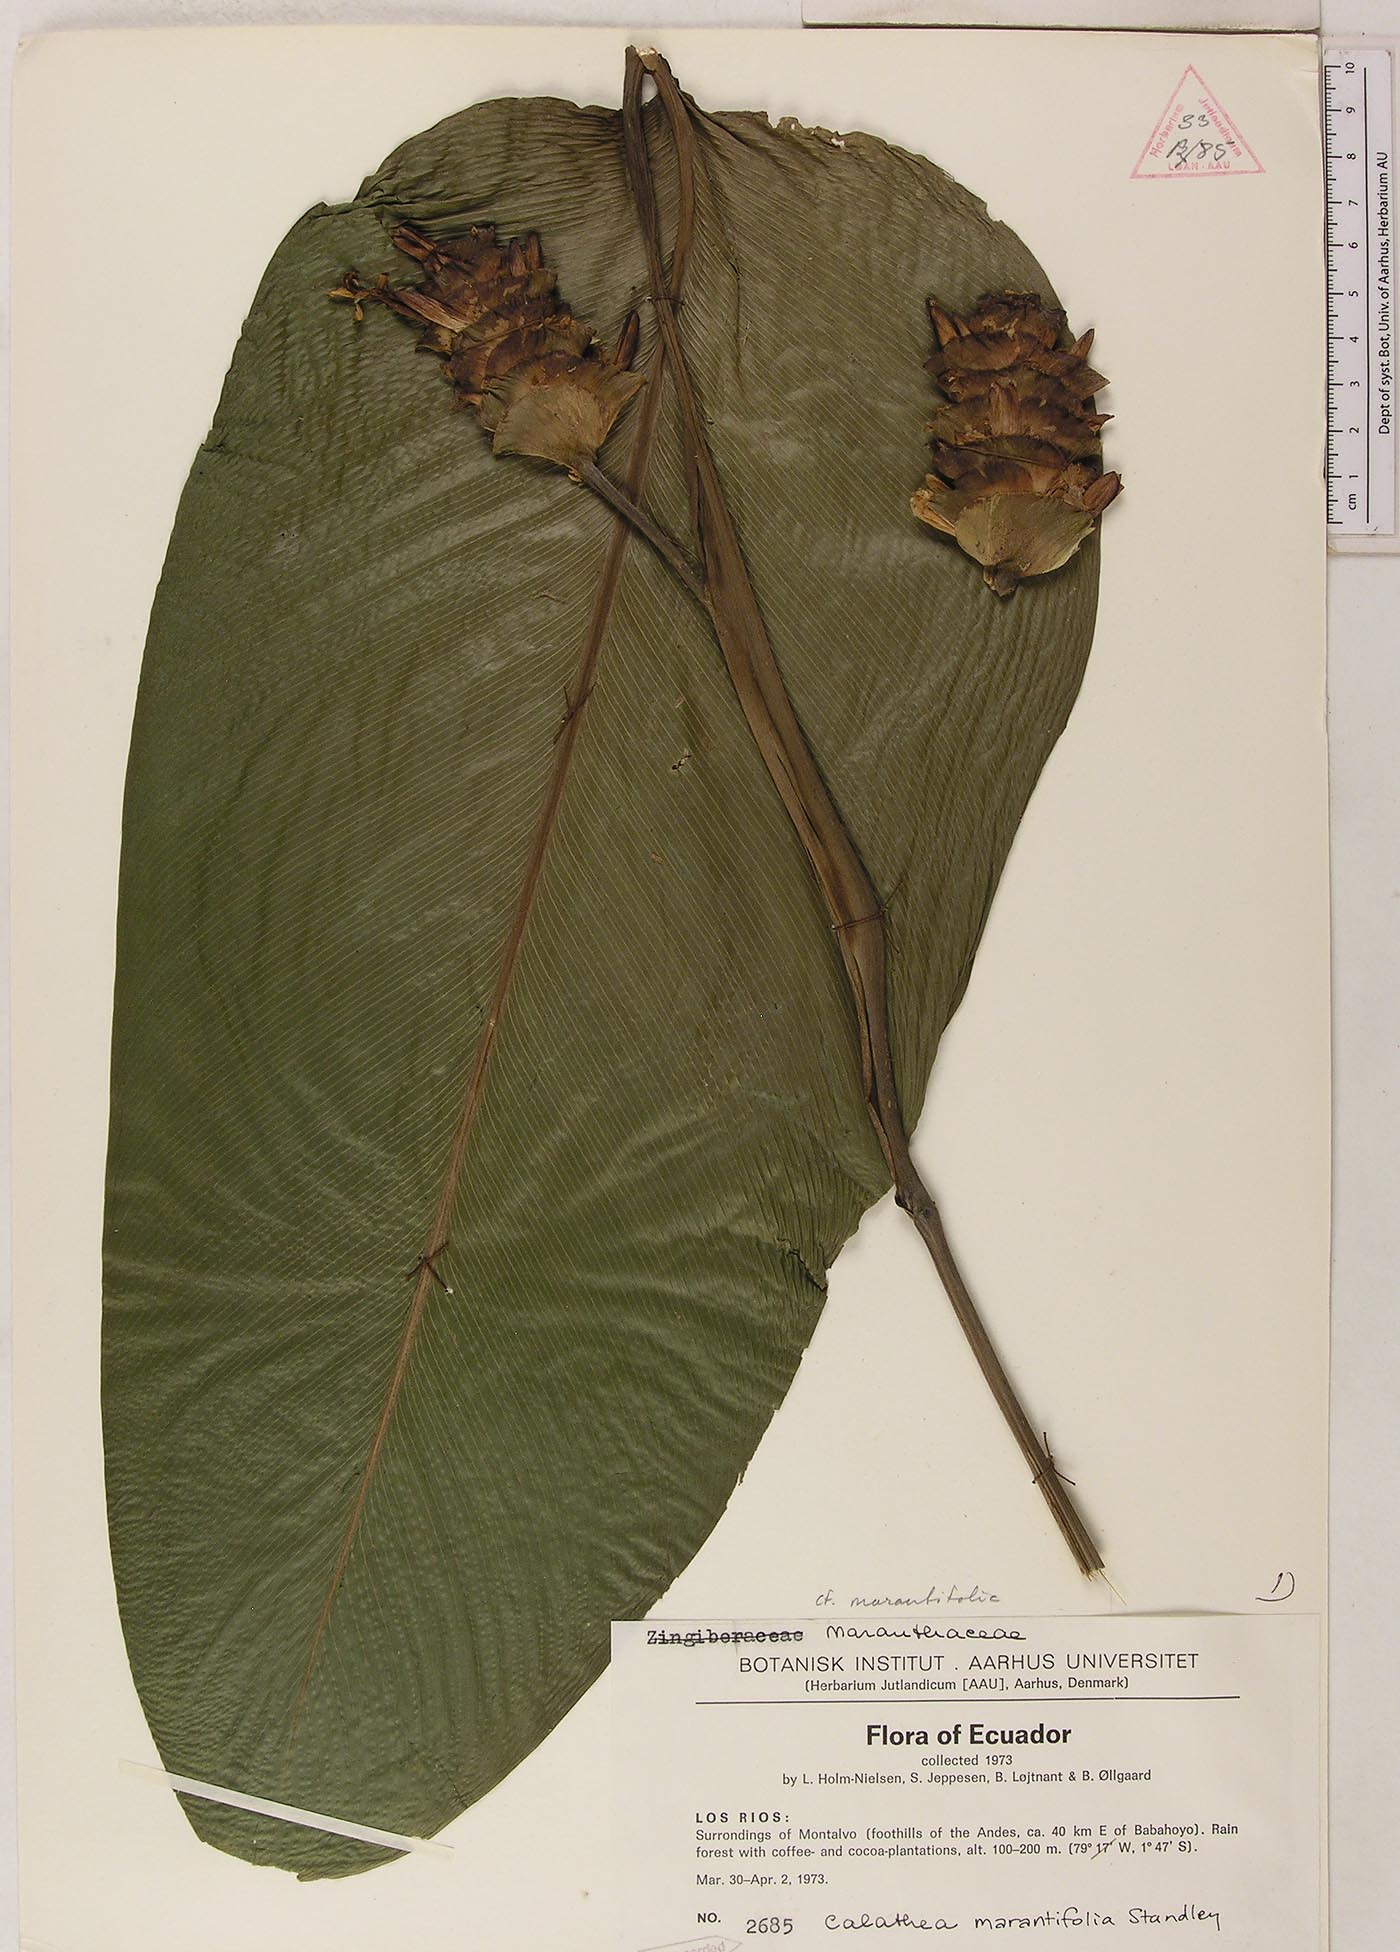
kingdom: Plantae
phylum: Tracheophyta
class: Magnoliopsida
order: Myrtales
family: Melastomataceae
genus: Miconia
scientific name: Miconia purpureoviolacea
